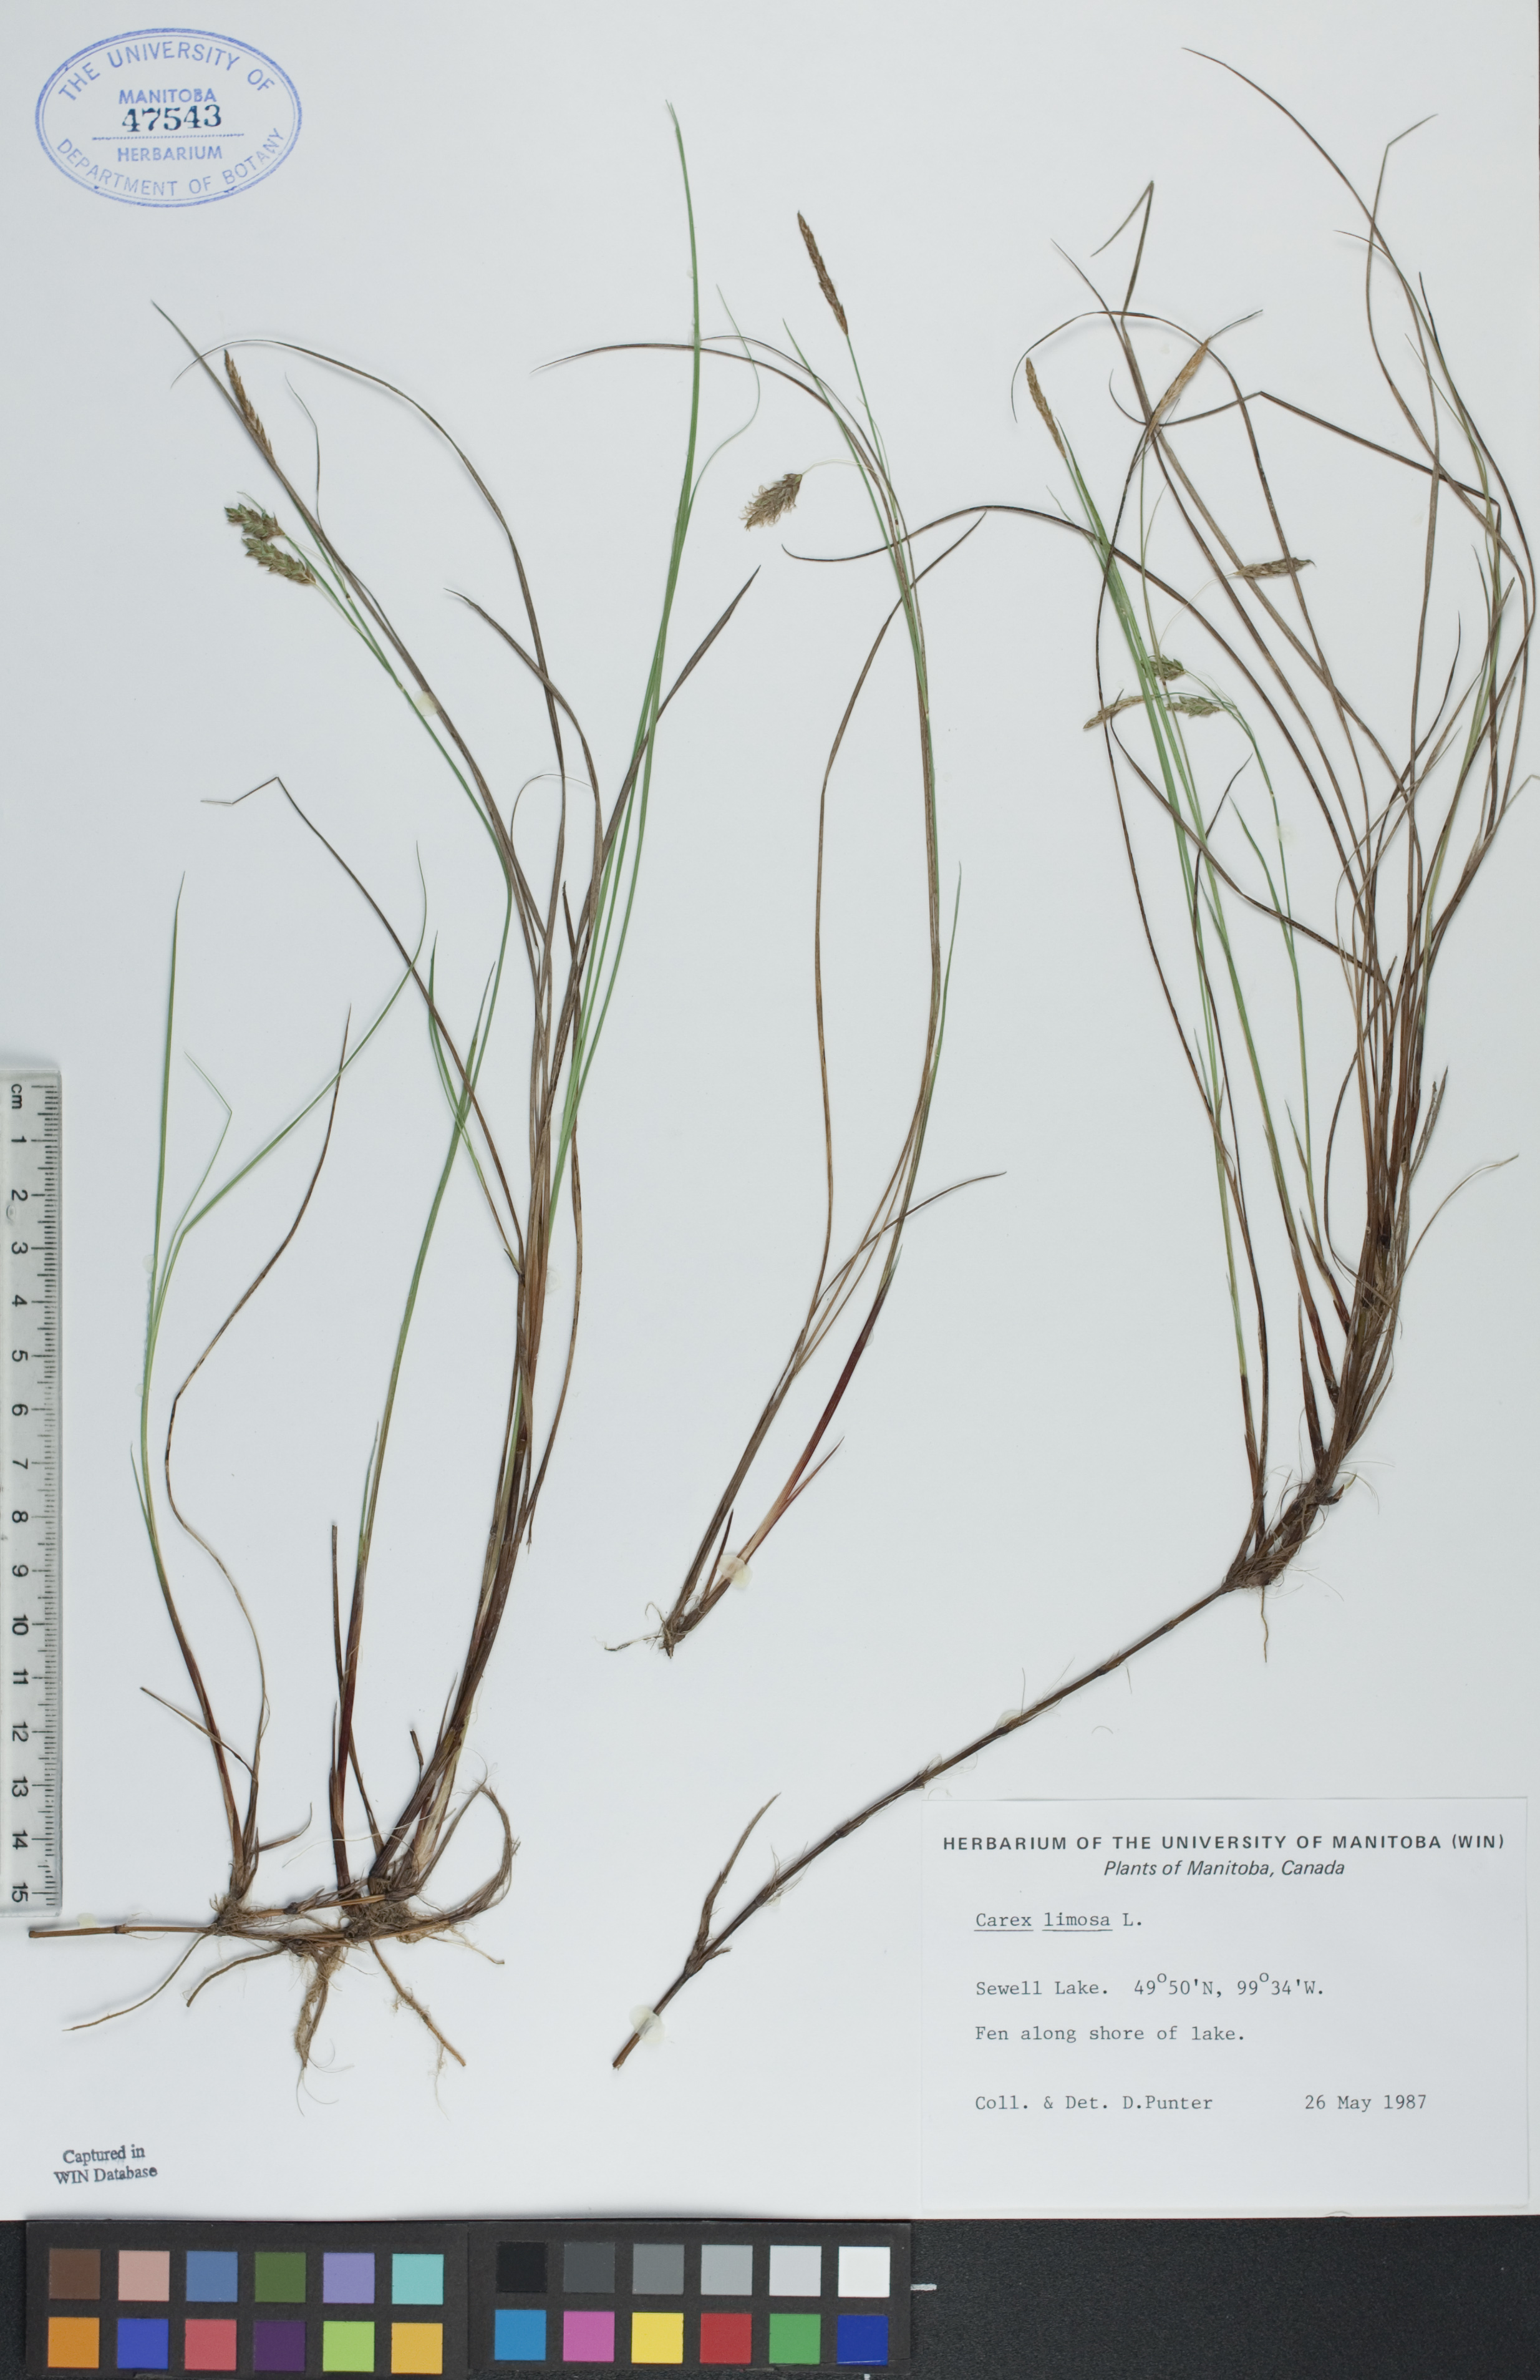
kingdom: Plantae
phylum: Tracheophyta
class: Liliopsida
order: Poales
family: Cyperaceae
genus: Carex
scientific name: Carex limosa
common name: Bog sedge
